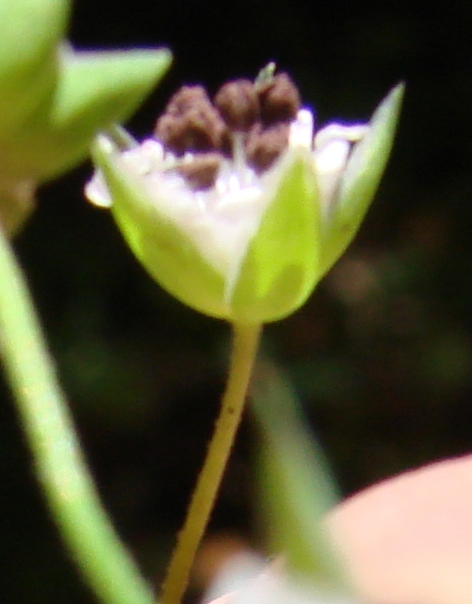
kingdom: Fungi
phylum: Basidiomycota
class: Microbotryomycetes
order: Microbotryales
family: Microbotryaceae
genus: Microbotryum
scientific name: Microbotryum stellariae
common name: fladstjerne-støvbladrust
